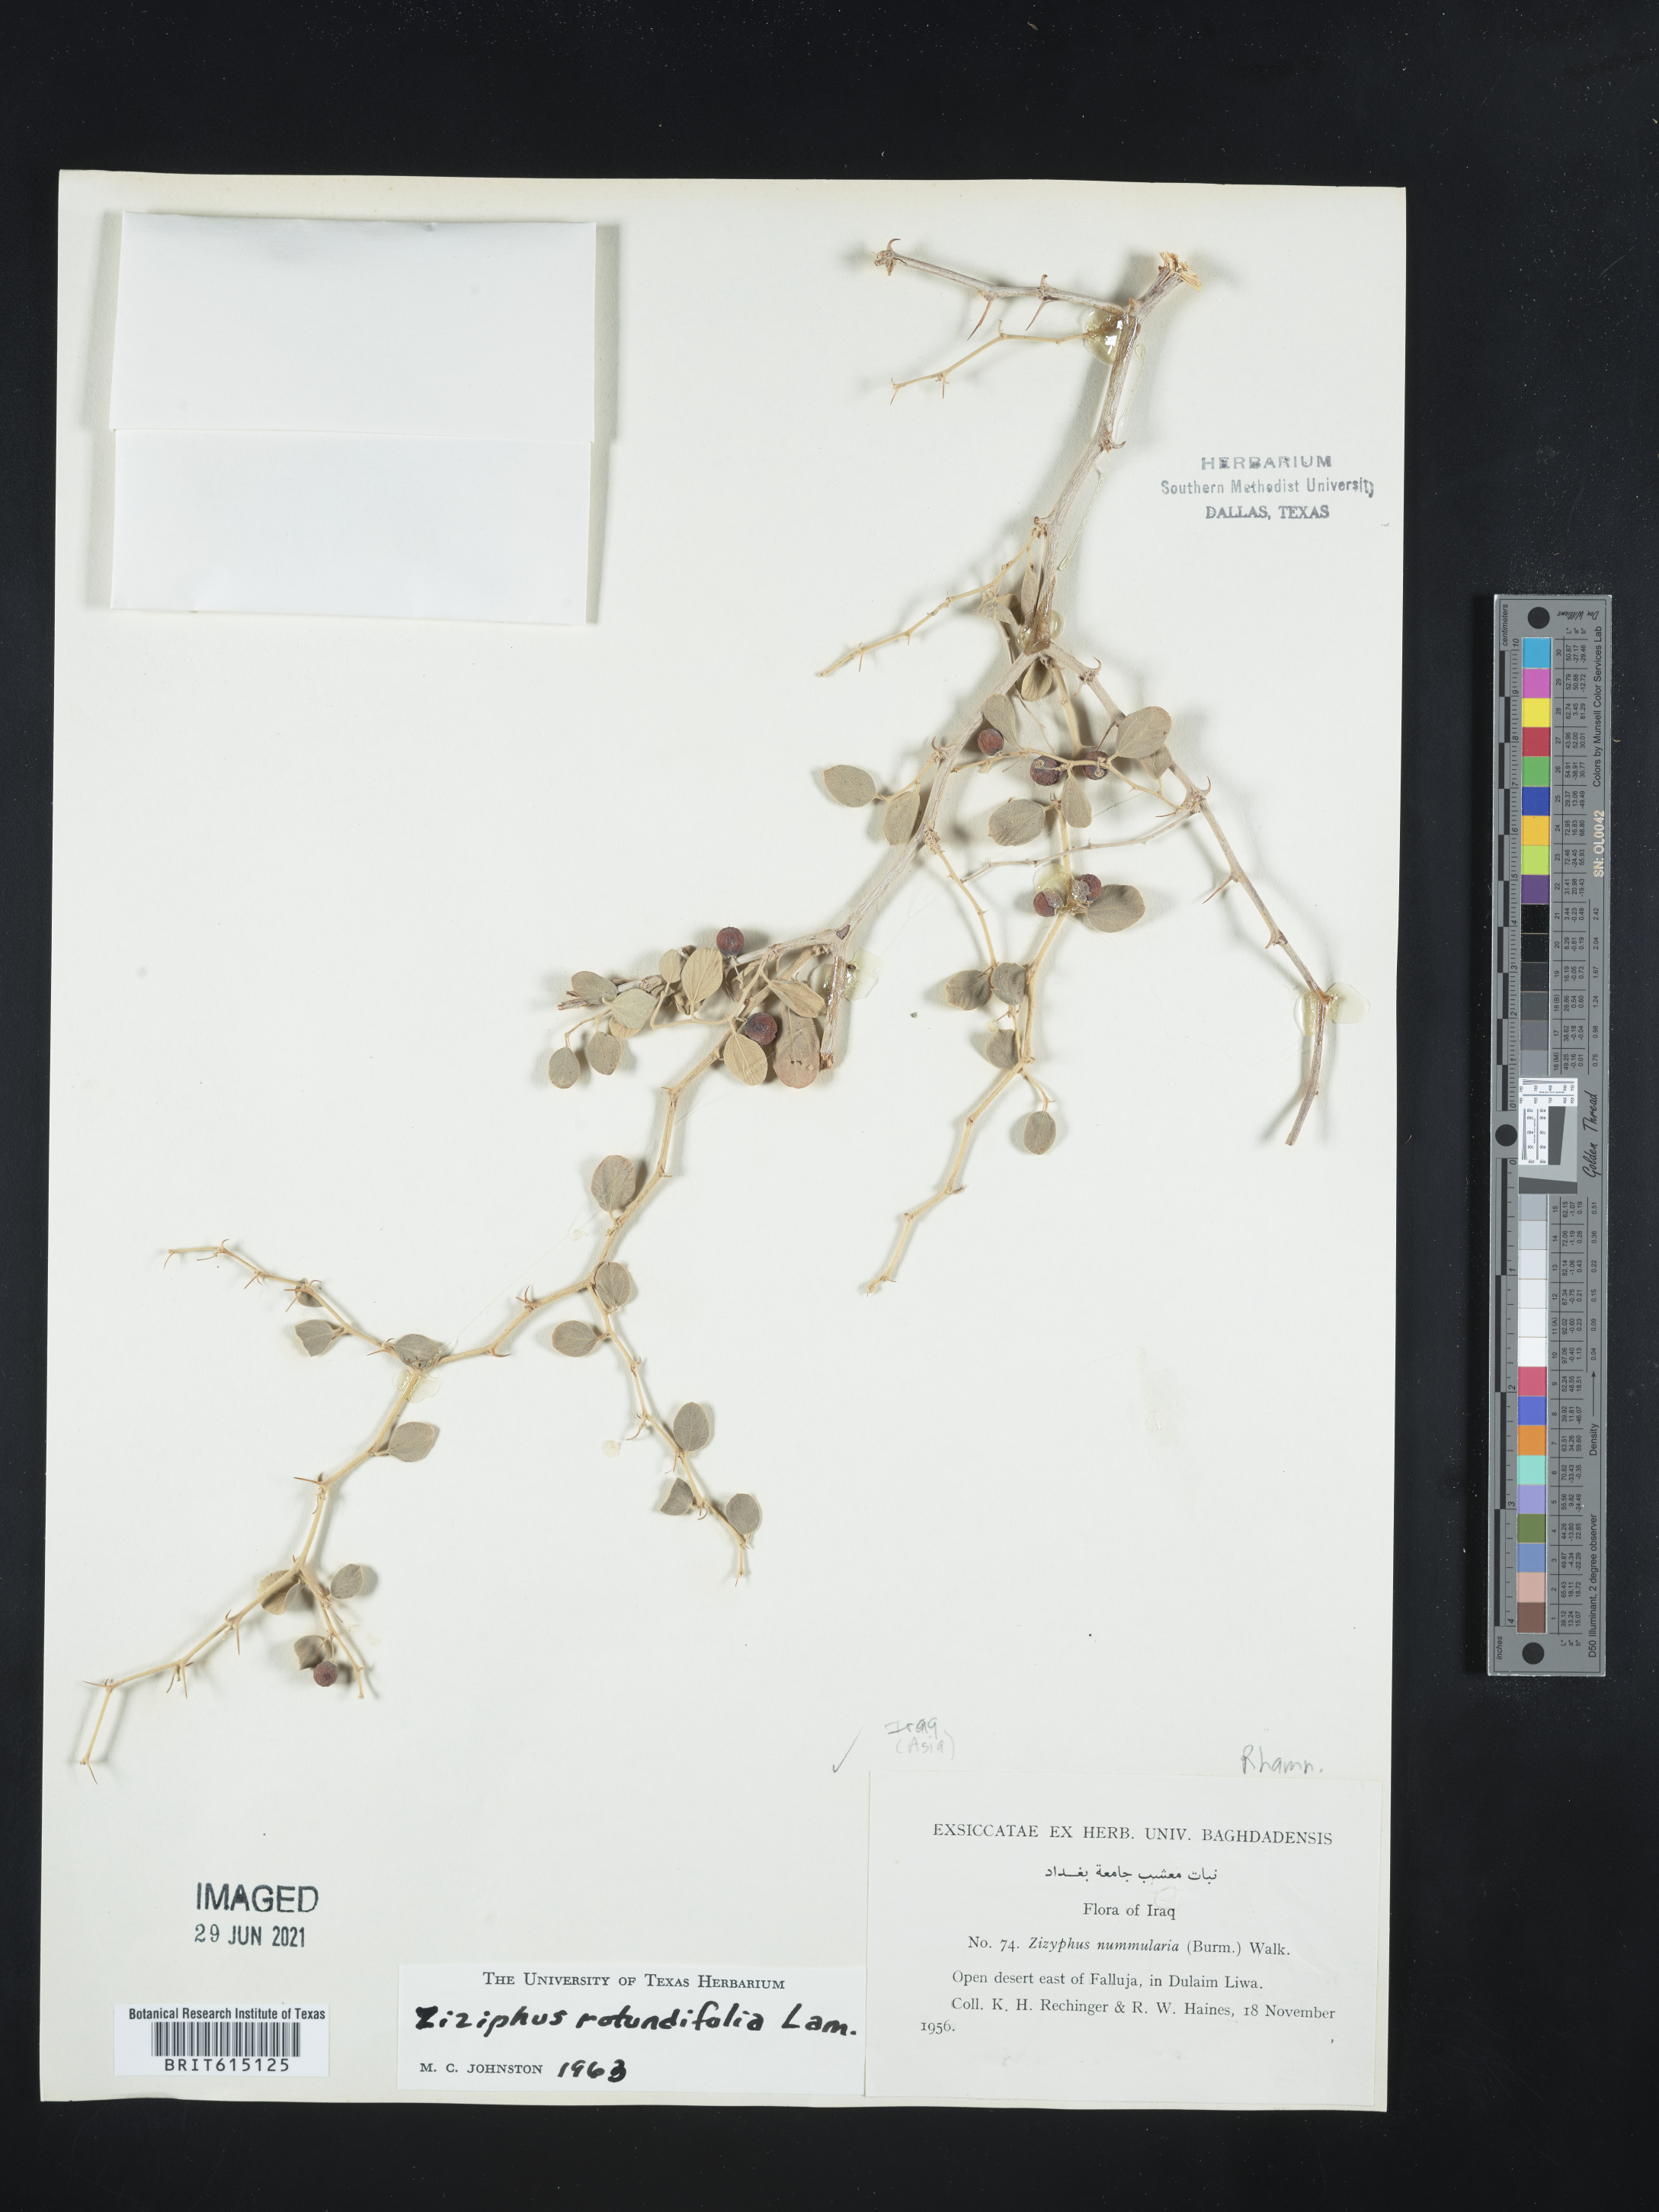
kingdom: Plantae
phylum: Tracheophyta
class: Magnoliopsida
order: Rosales
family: Rhamnaceae
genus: Ziziphus
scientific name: Ziziphus xylopyrus
